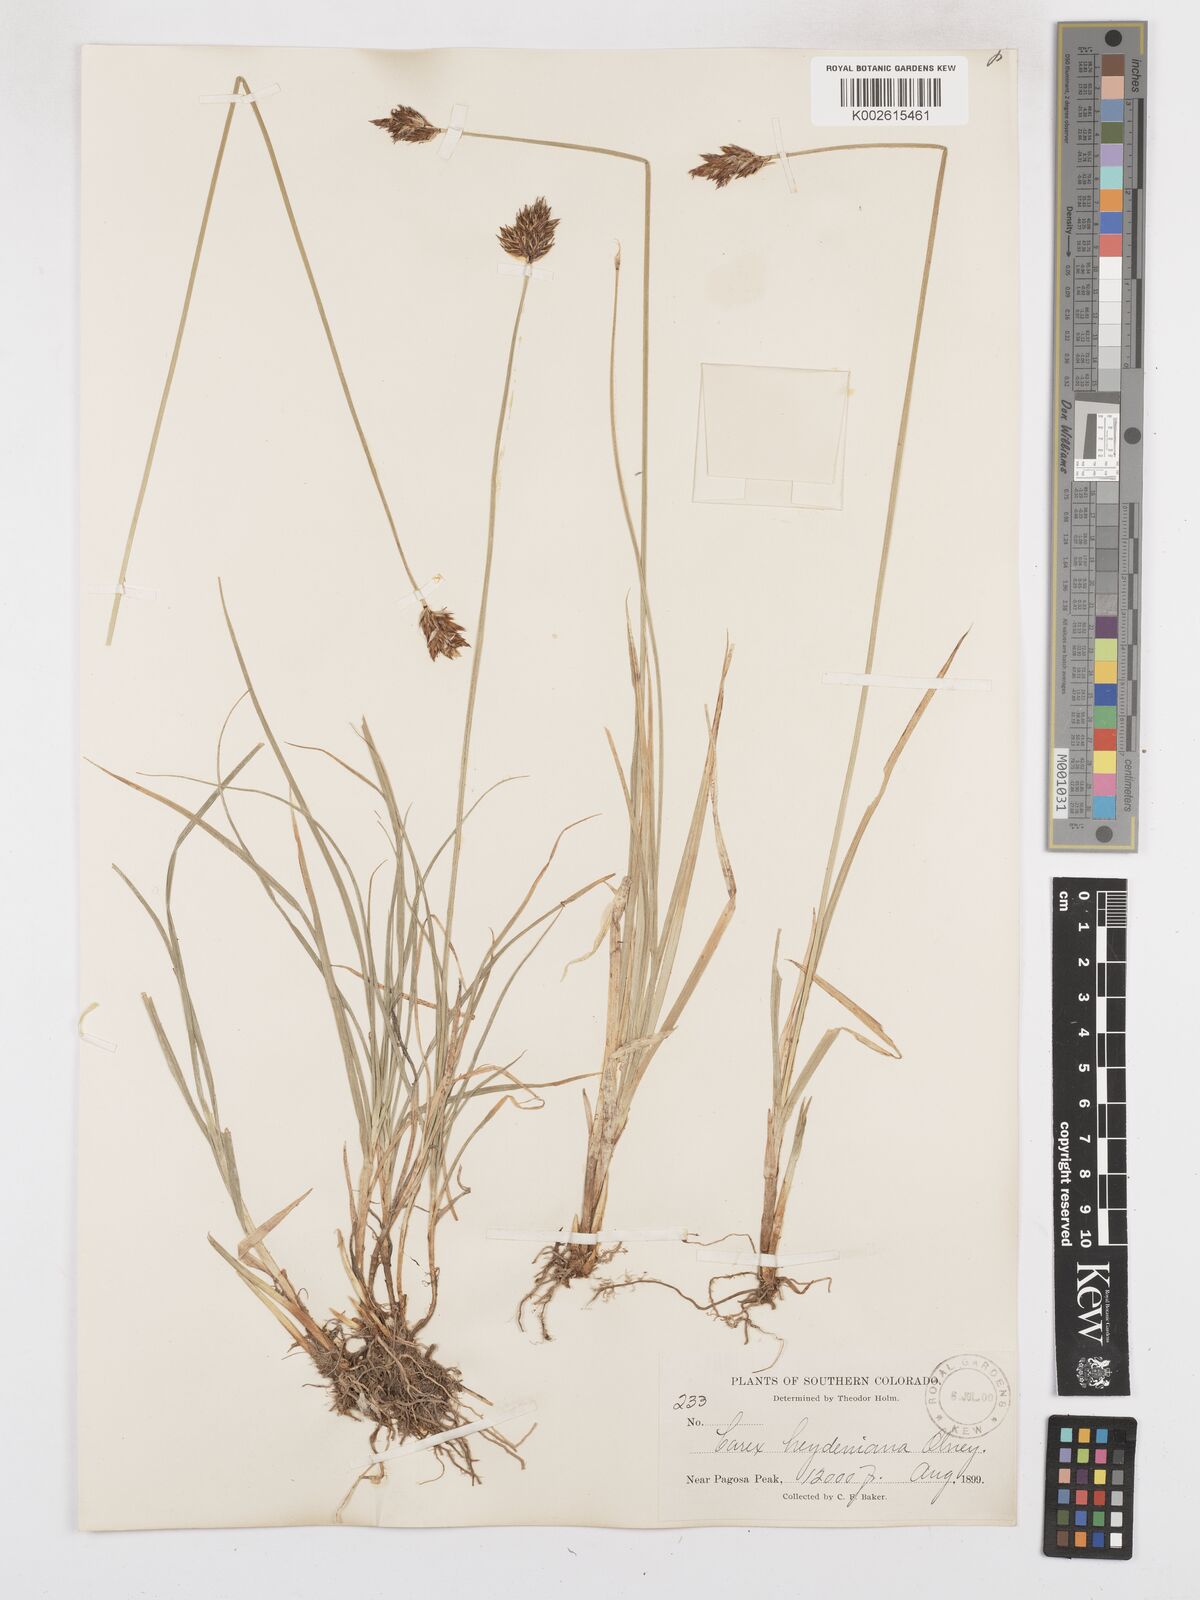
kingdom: Plantae
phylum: Tracheophyta
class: Liliopsida
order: Poales
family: Cyperaceae
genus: Carex
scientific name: Carex haydeniana
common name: Cloud sedge
